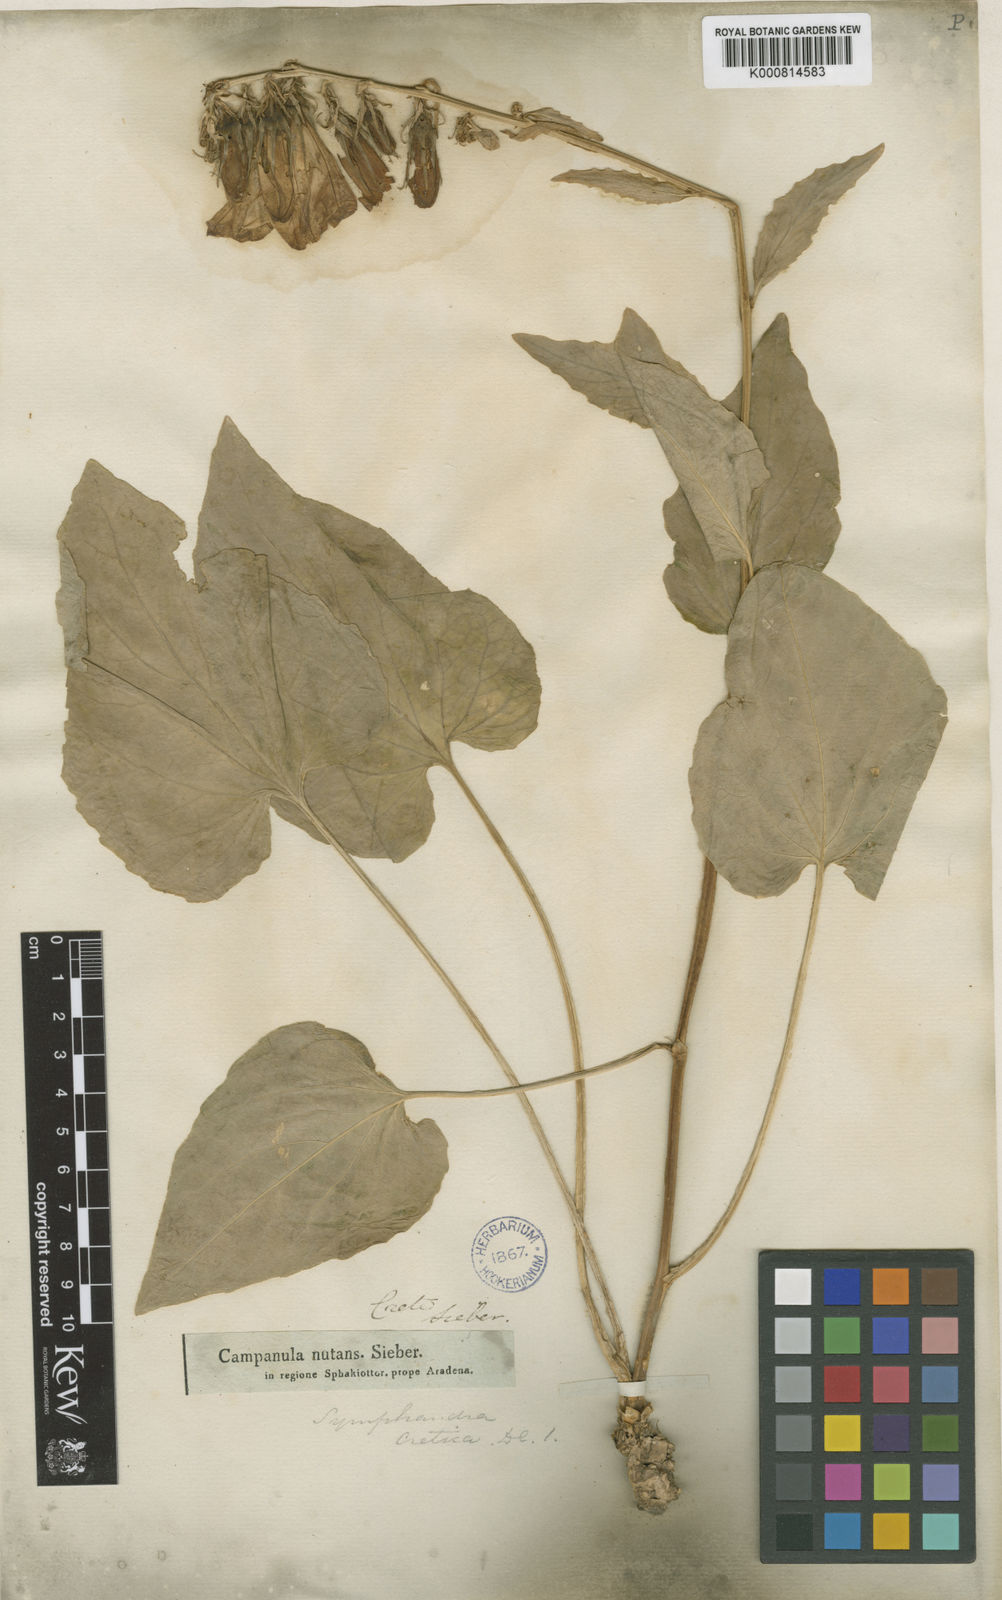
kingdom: Plantae
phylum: Tracheophyta
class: Magnoliopsida
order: Asterales
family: Campanulaceae
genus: Campanula
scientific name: Campanula cretica
